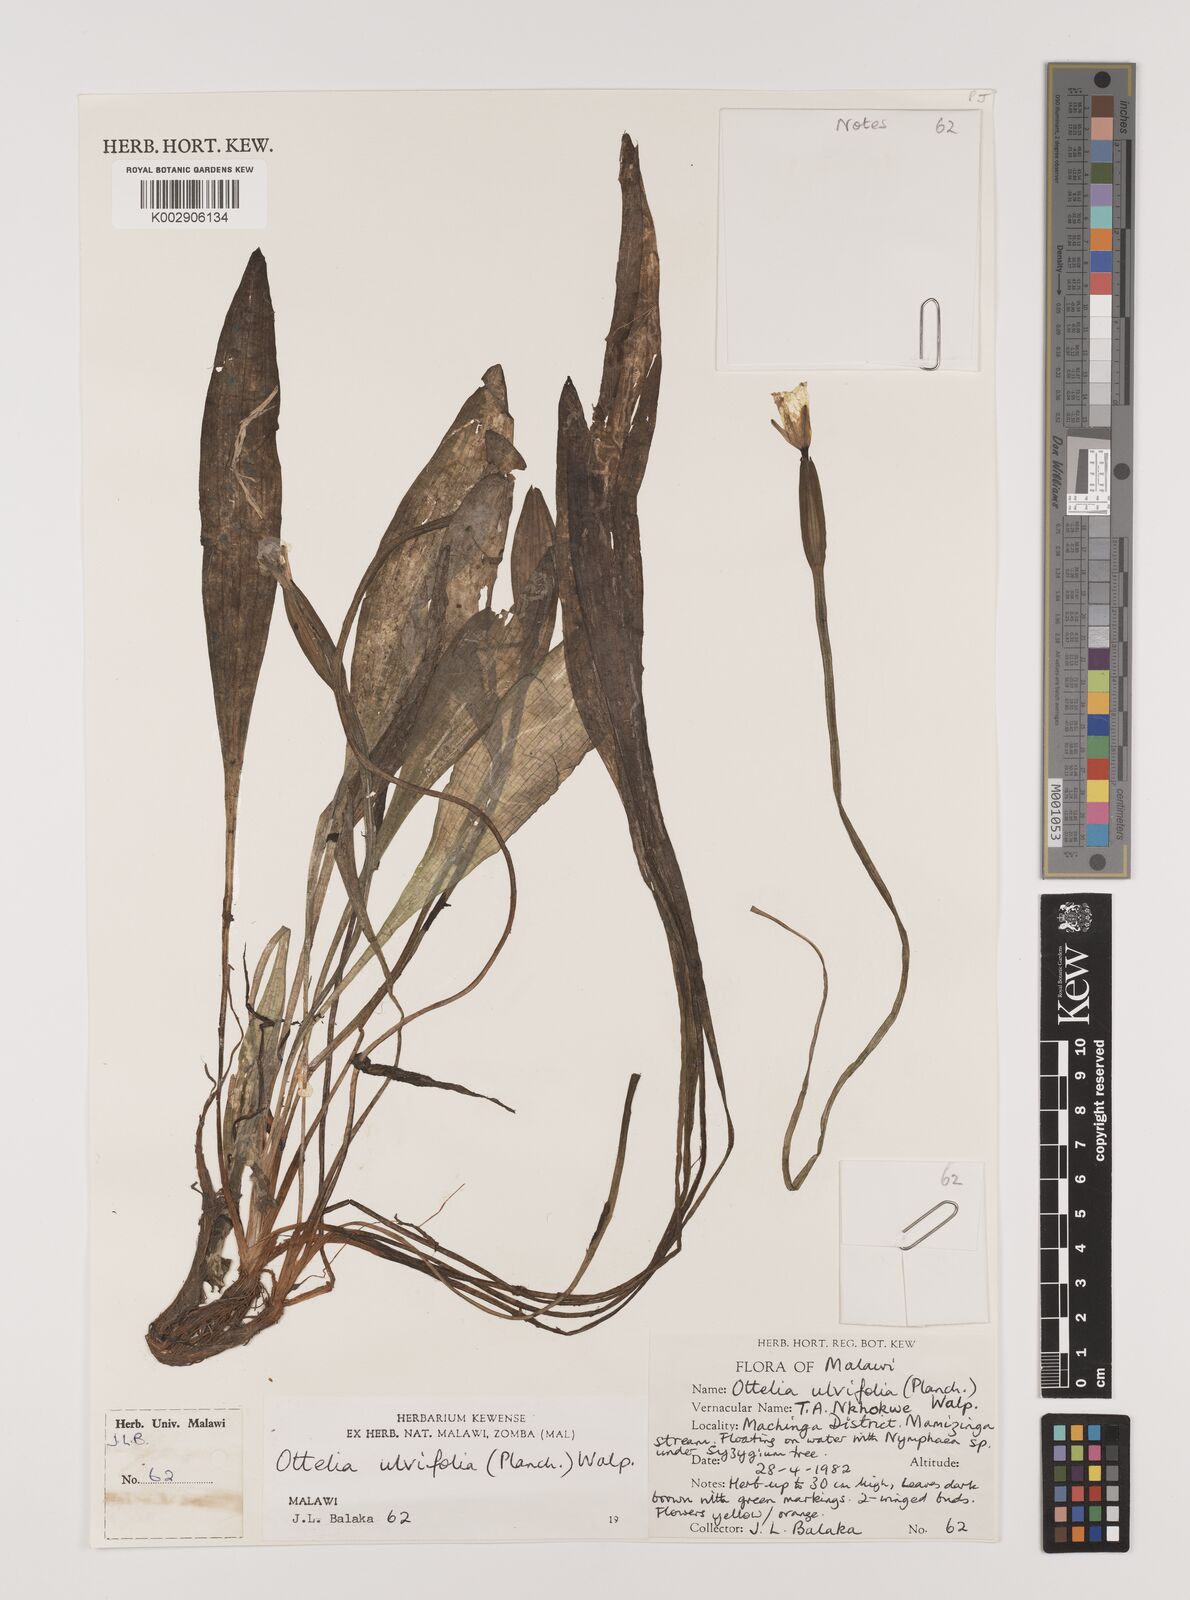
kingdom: Plantae
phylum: Tracheophyta
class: Liliopsida
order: Alismatales
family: Hydrocharitaceae
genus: Ottelia
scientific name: Ottelia ulvifolia
